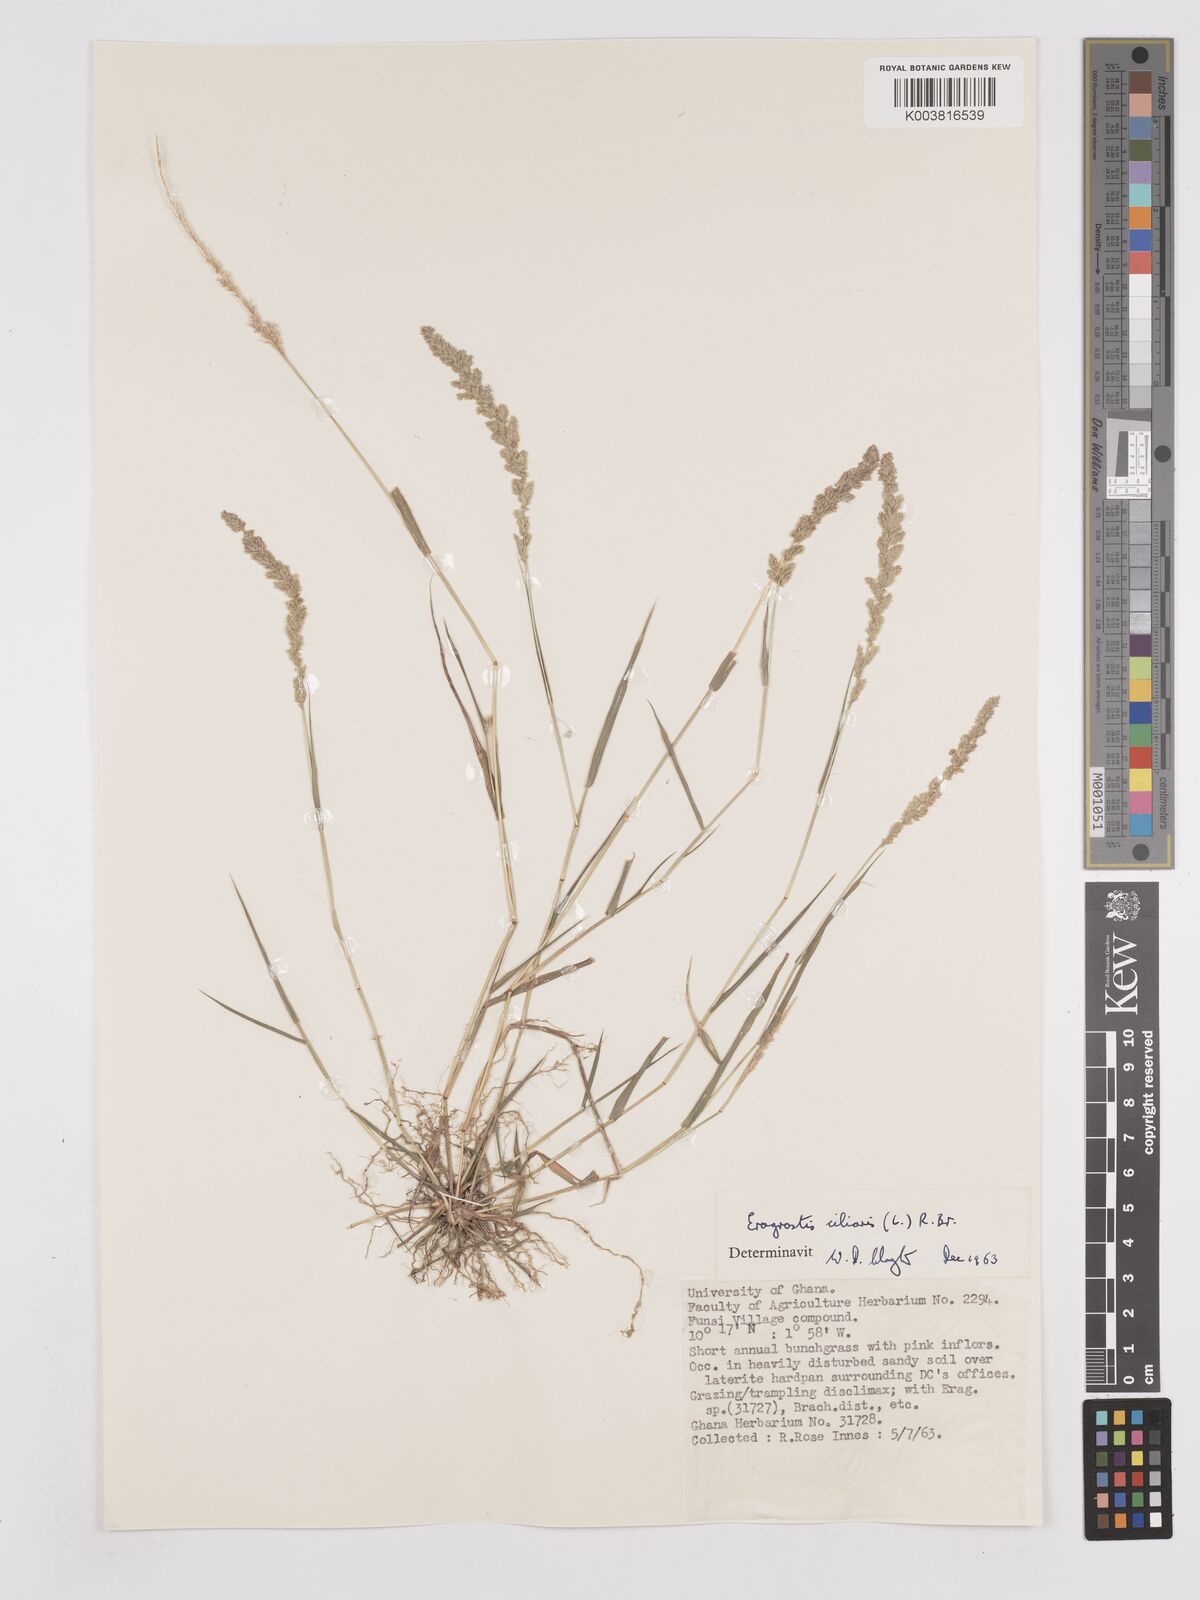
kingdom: Plantae
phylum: Tracheophyta
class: Liliopsida
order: Poales
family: Poaceae
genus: Eragrostis
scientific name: Eragrostis ciliaris
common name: Gophertail lovegrass
